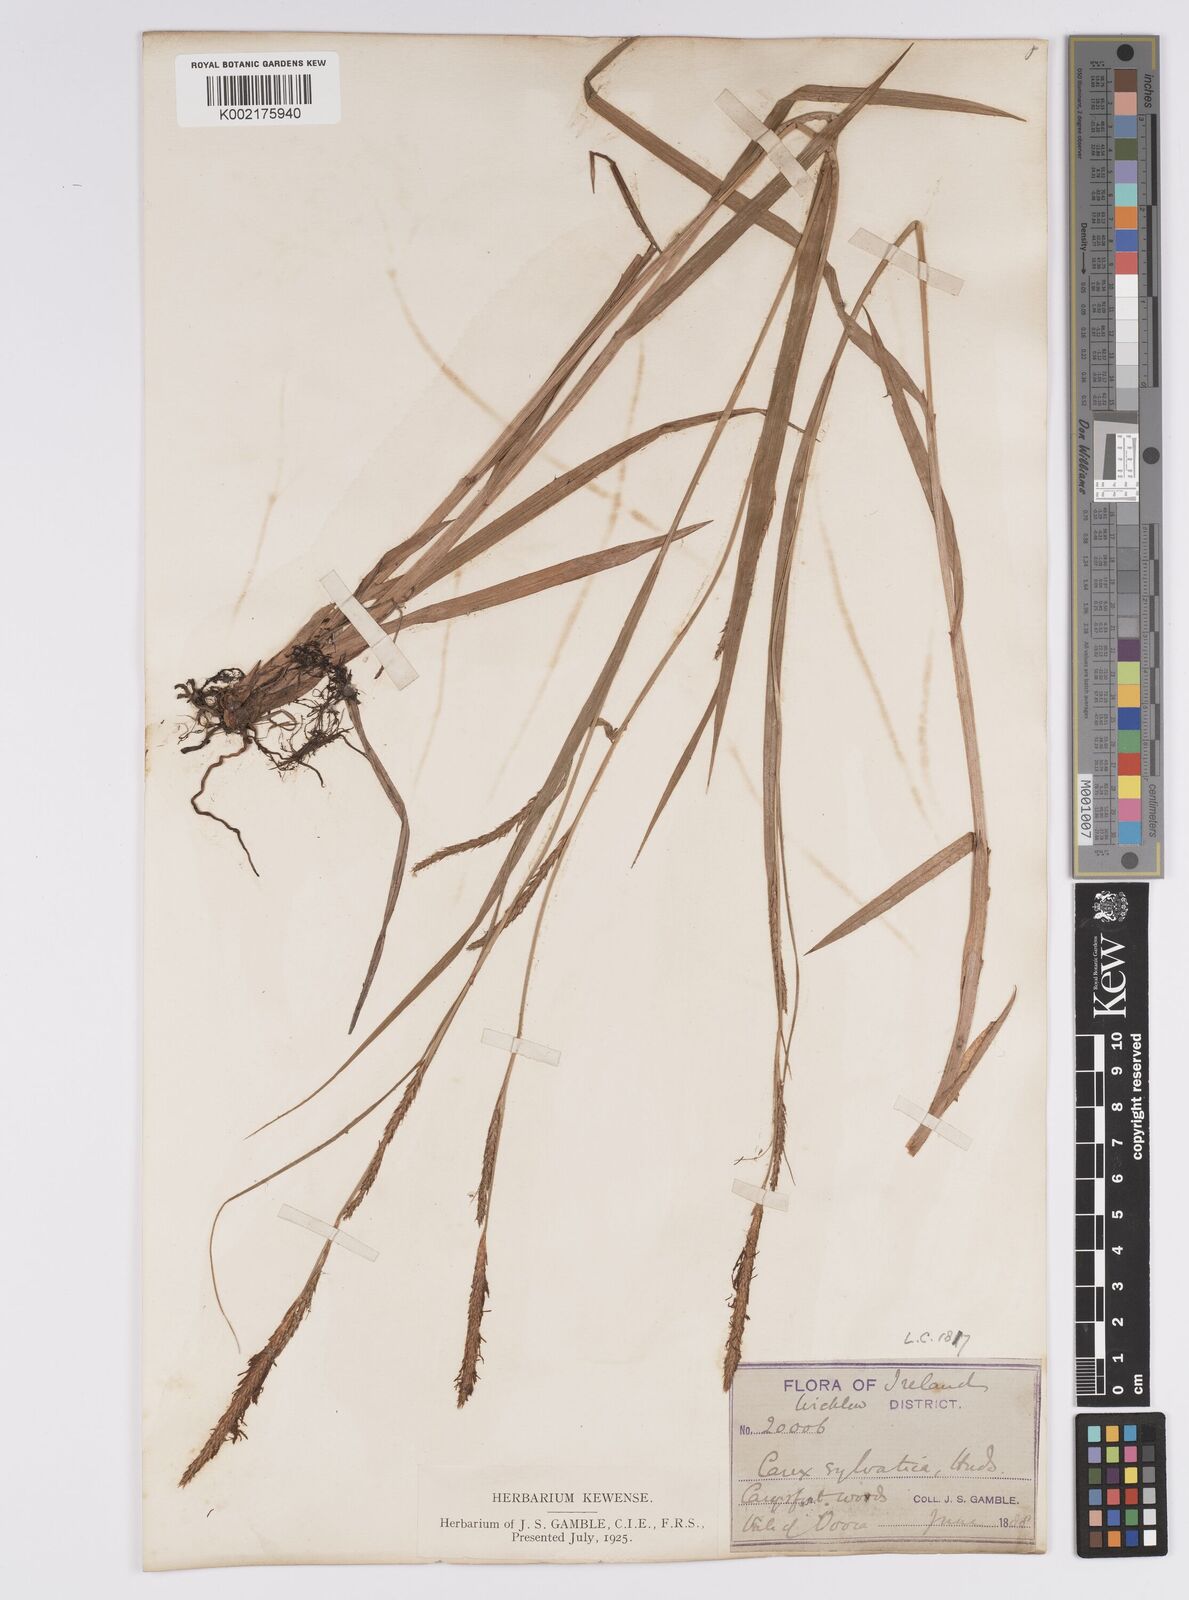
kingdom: Plantae
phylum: Tracheophyta
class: Liliopsida
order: Poales
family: Cyperaceae
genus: Carex
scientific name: Carex laevigata
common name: Smooth-stalked sedge
